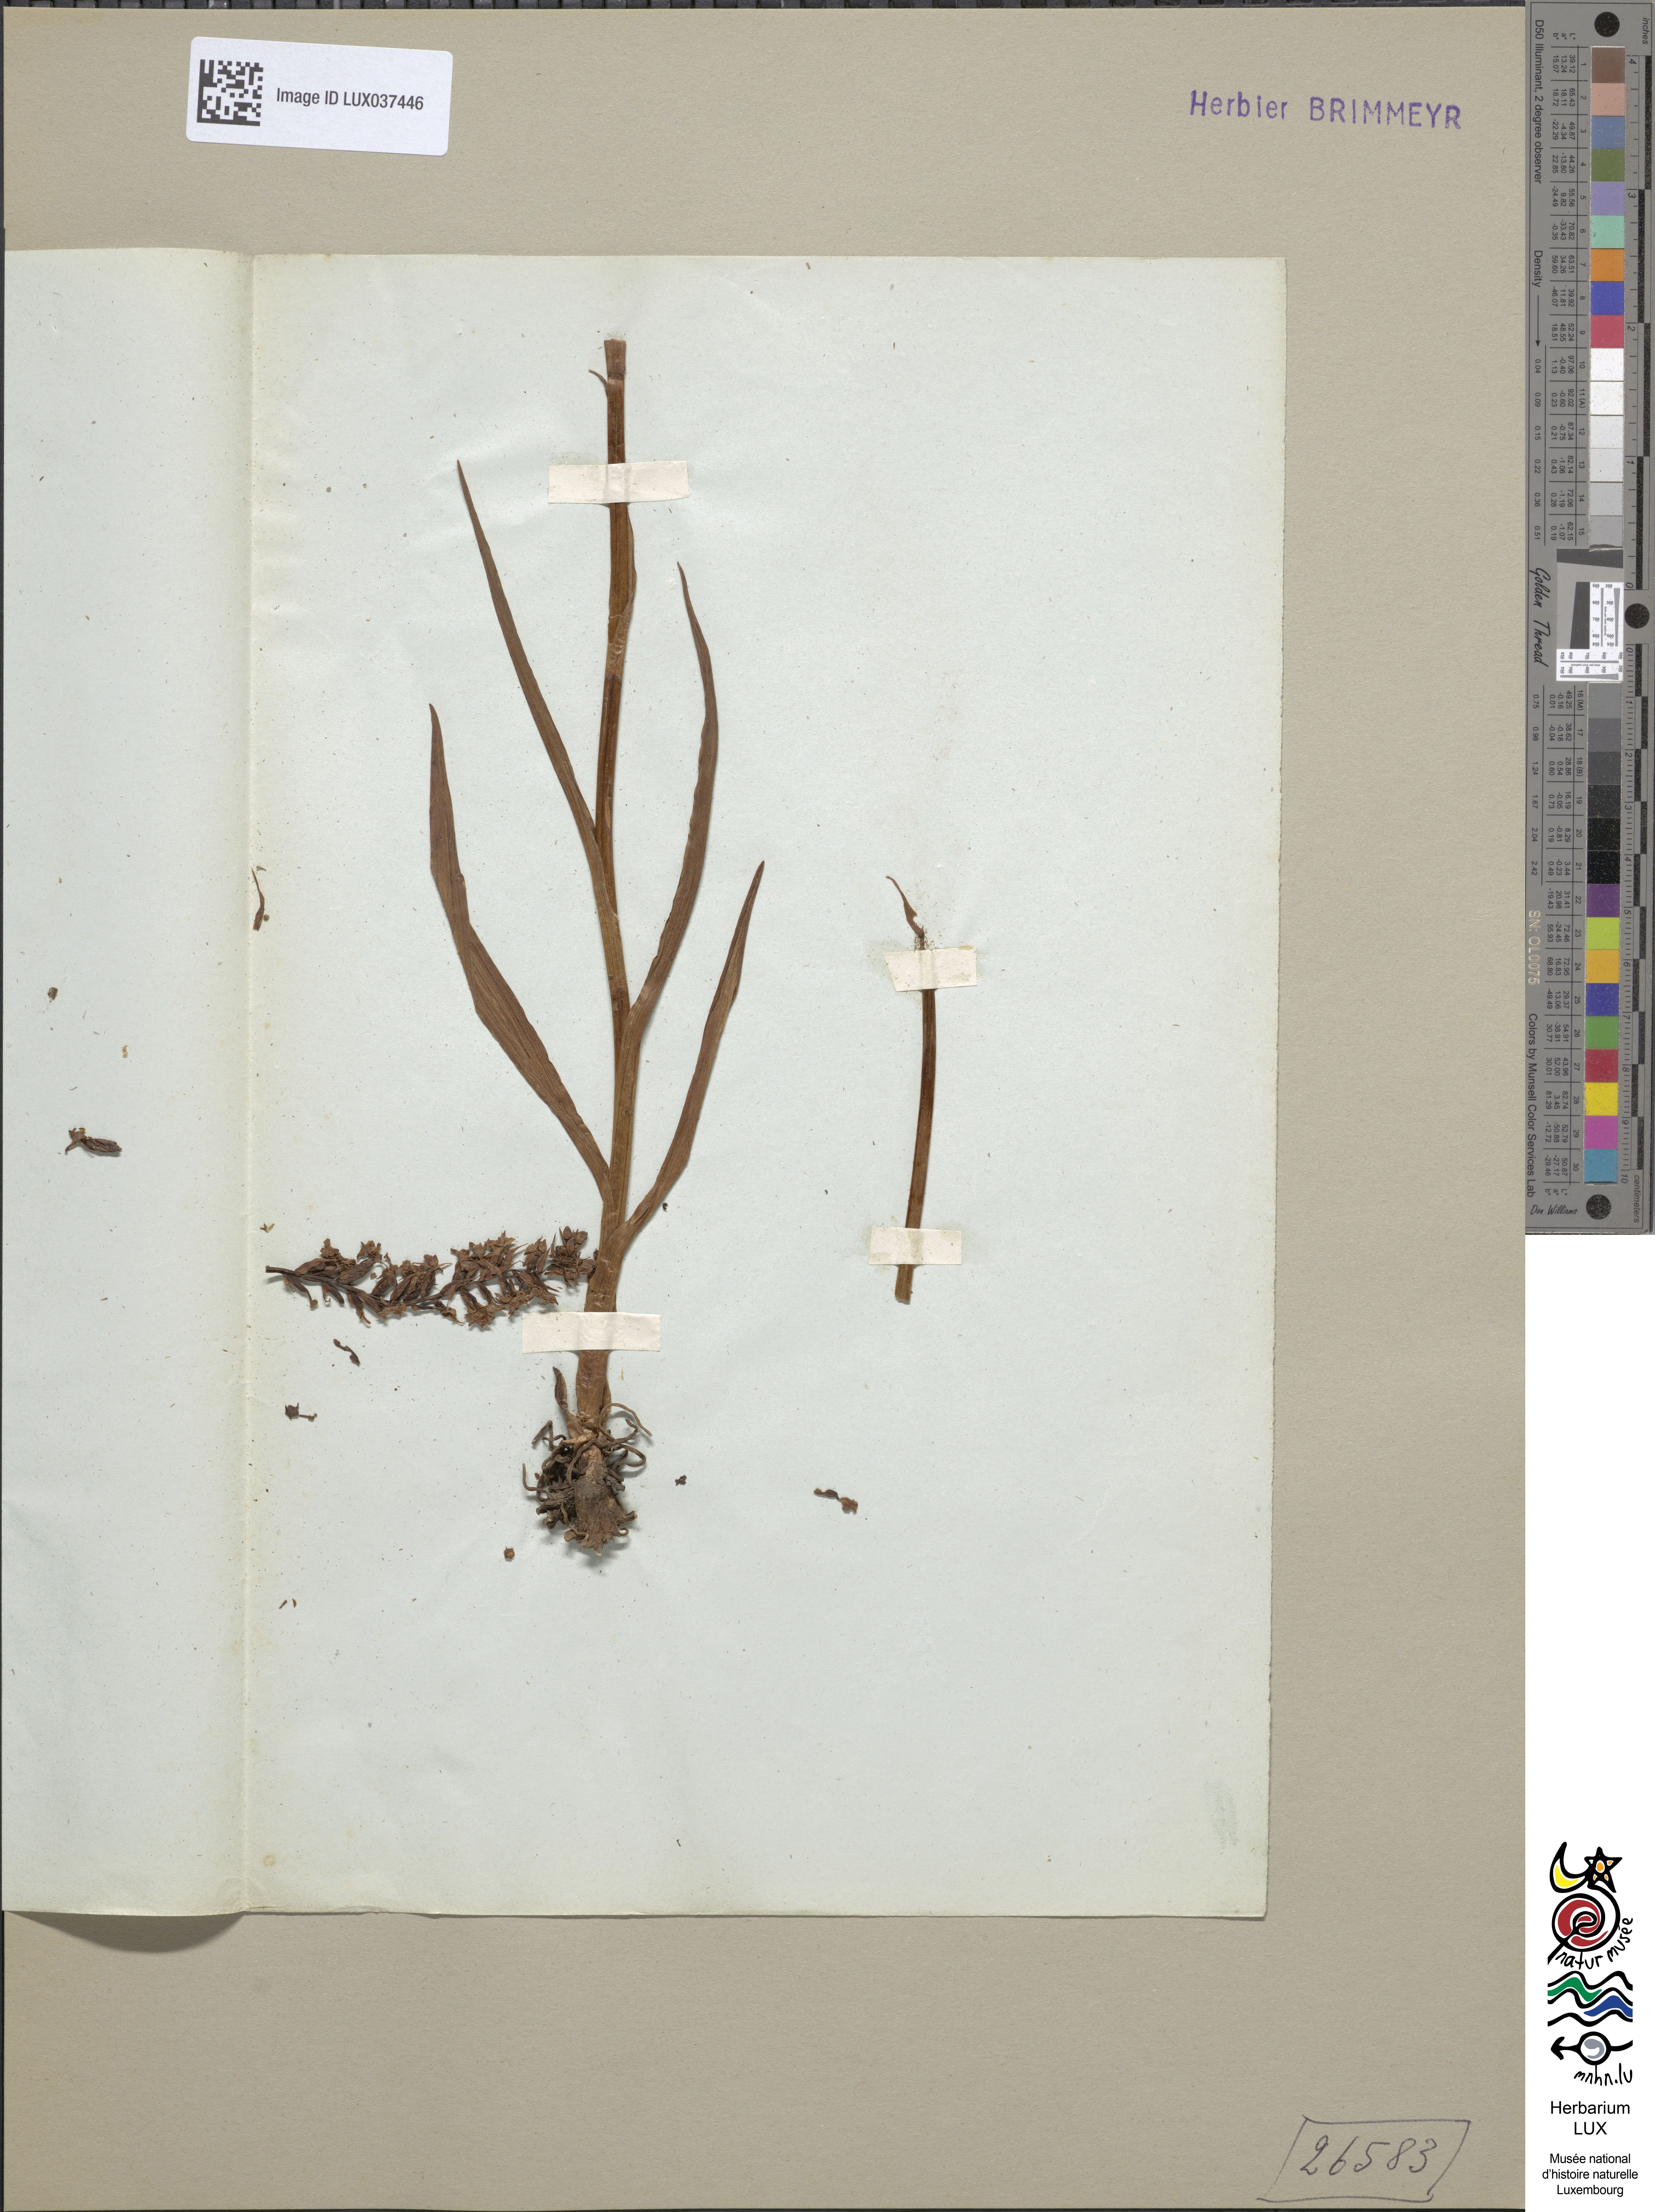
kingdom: Plantae
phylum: Tracheophyta
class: Liliopsida
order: Asparagales
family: Orchidaceae
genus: Gymnadenia
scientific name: Gymnadenia odoratissima
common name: Scented gymnadenia
